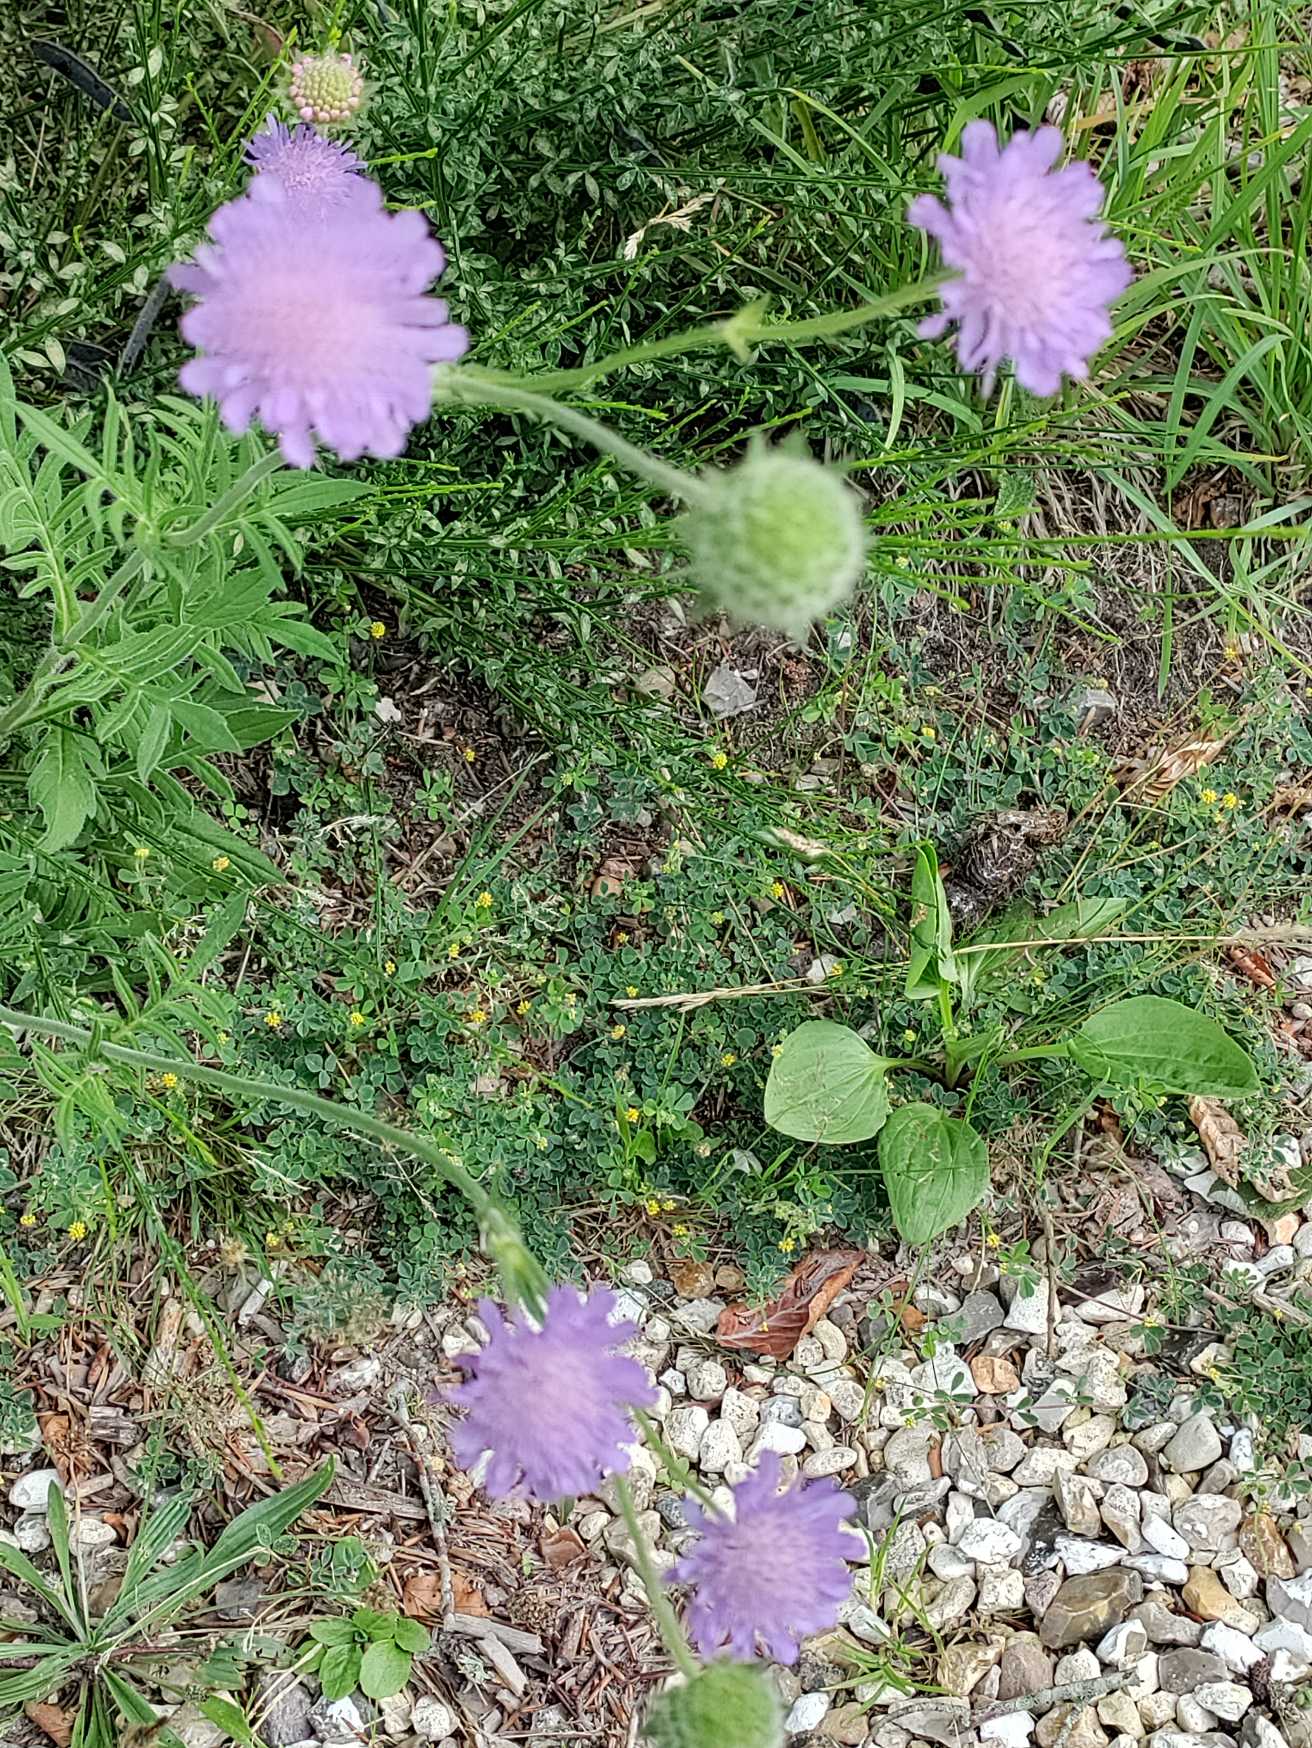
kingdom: Plantae
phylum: Tracheophyta
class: Magnoliopsida
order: Dipsacales
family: Caprifoliaceae
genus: Knautia
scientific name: Knautia arvensis
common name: Blåhat
